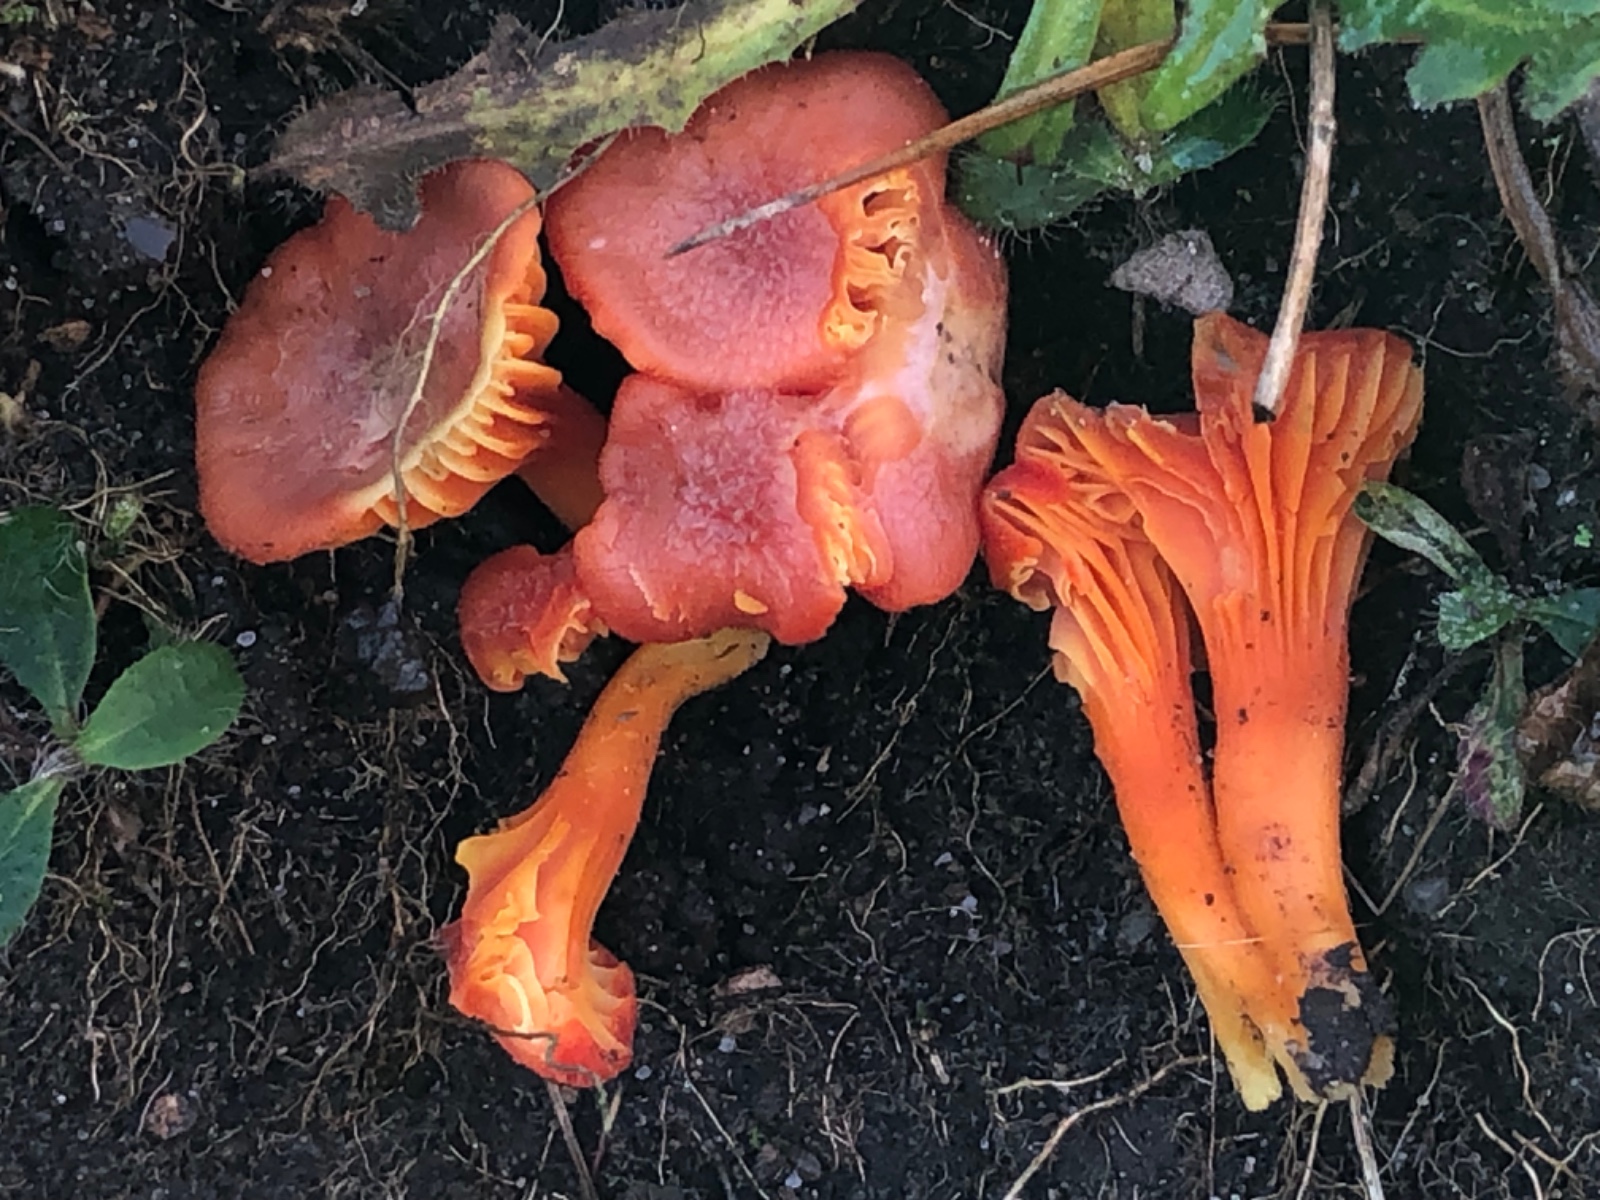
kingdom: Fungi
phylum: Basidiomycota
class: Agaricomycetes
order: Agaricales
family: Hygrophoraceae
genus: Hygrocybe
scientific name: Hygrocybe miniata
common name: mønje-vokshat
